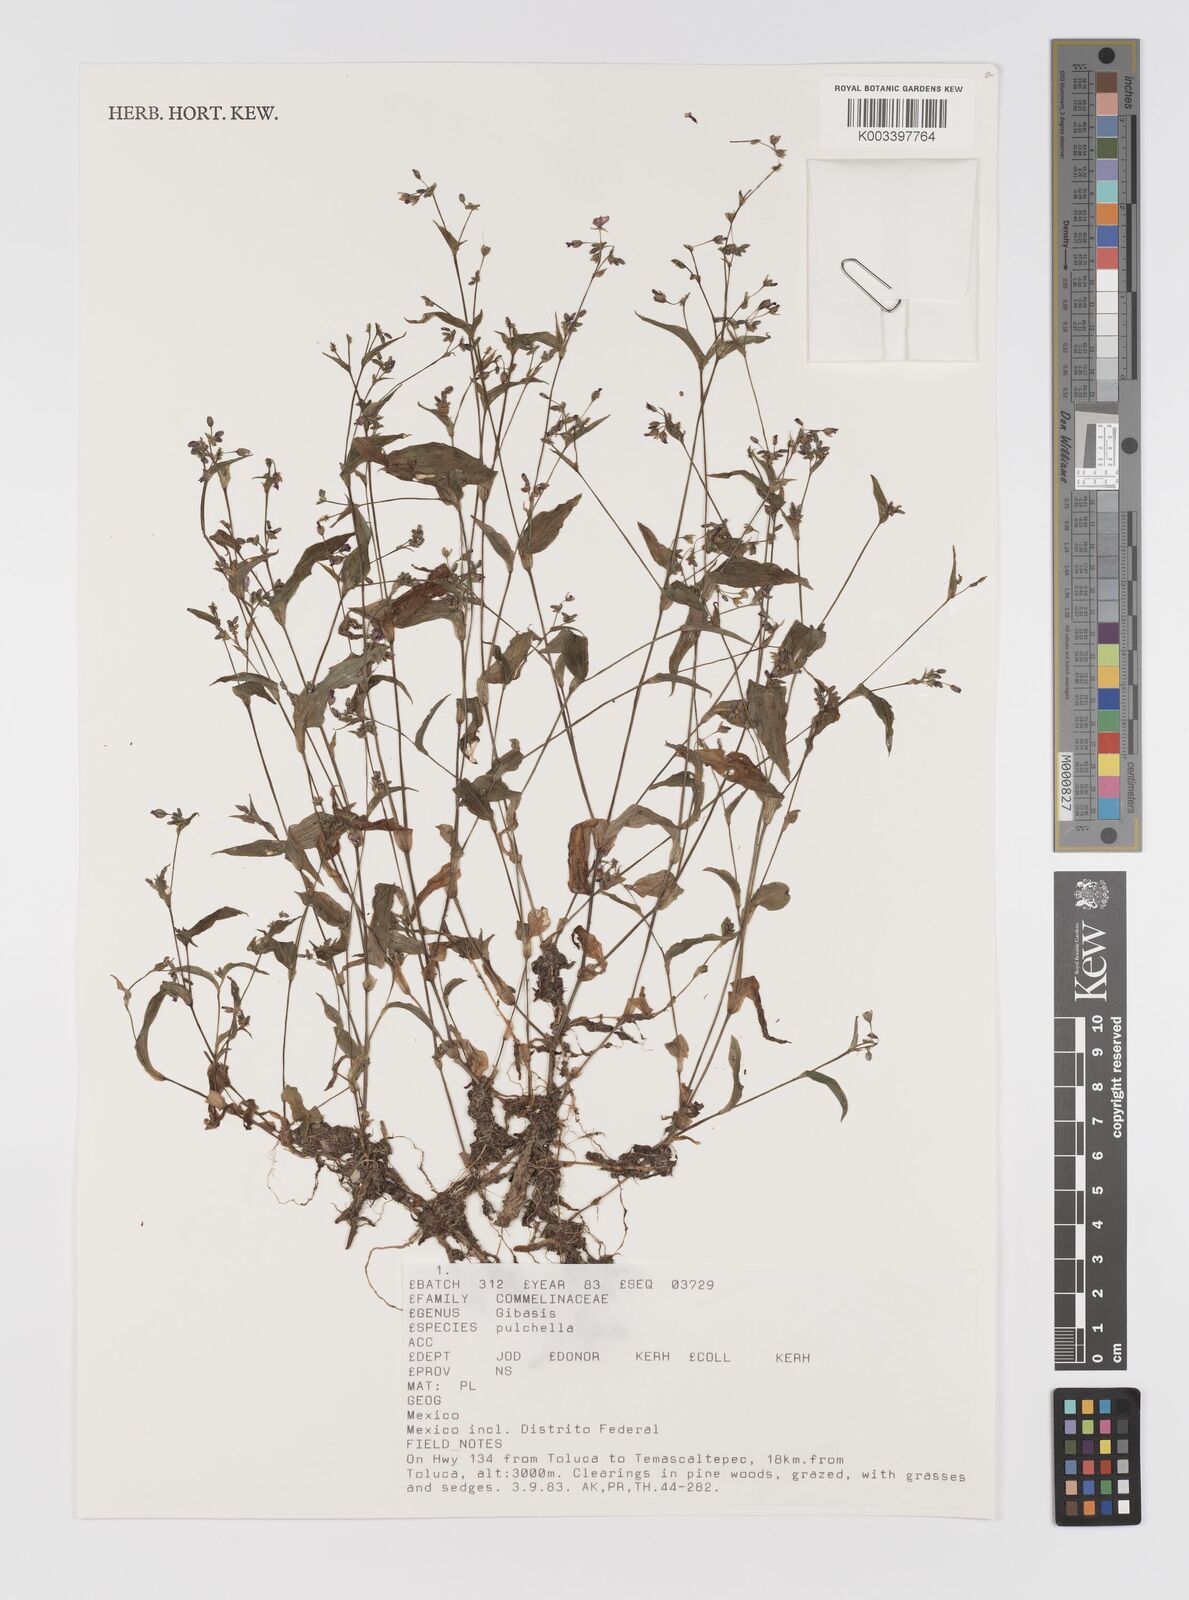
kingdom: Plantae
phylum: Tracheophyta
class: Liliopsida
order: Commelinales
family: Commelinaceae
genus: Gibasis
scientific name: Gibasis pulchella
